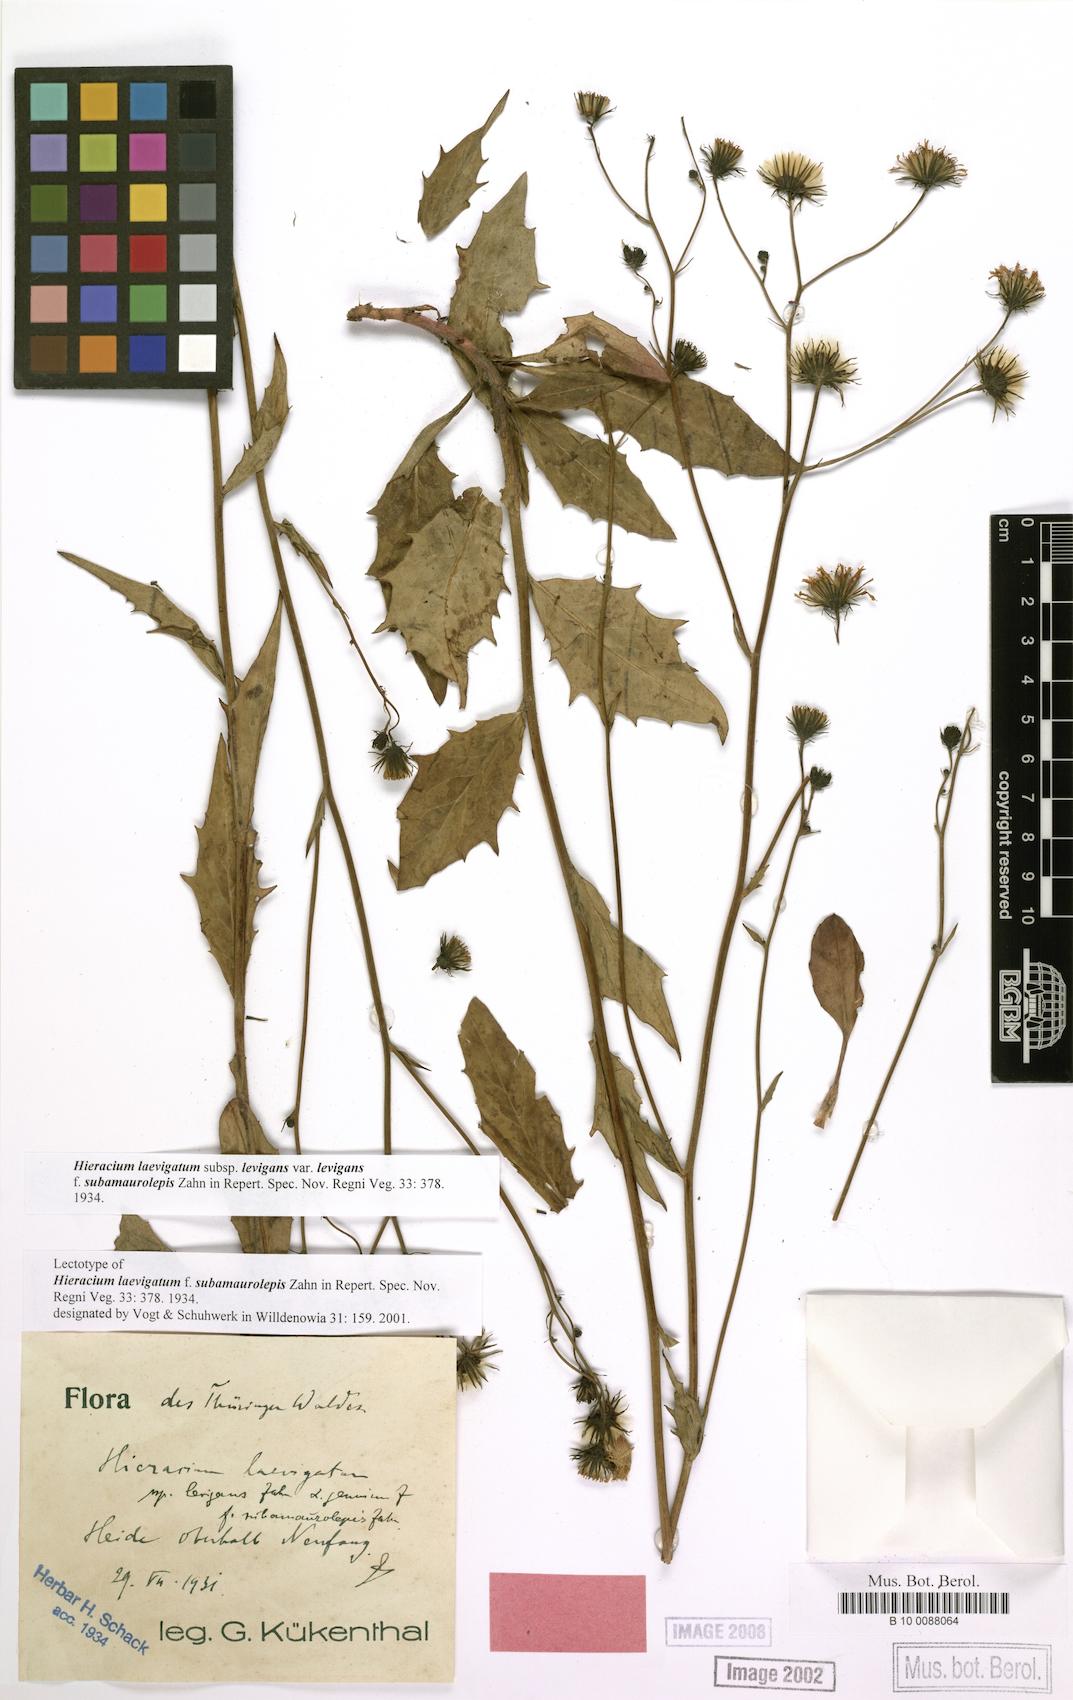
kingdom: Plantae
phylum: Tracheophyta
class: Magnoliopsida
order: Asterales
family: Asteraceae
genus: Hieracium
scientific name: Hieracium laevigatum
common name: Smooth hawkweed
